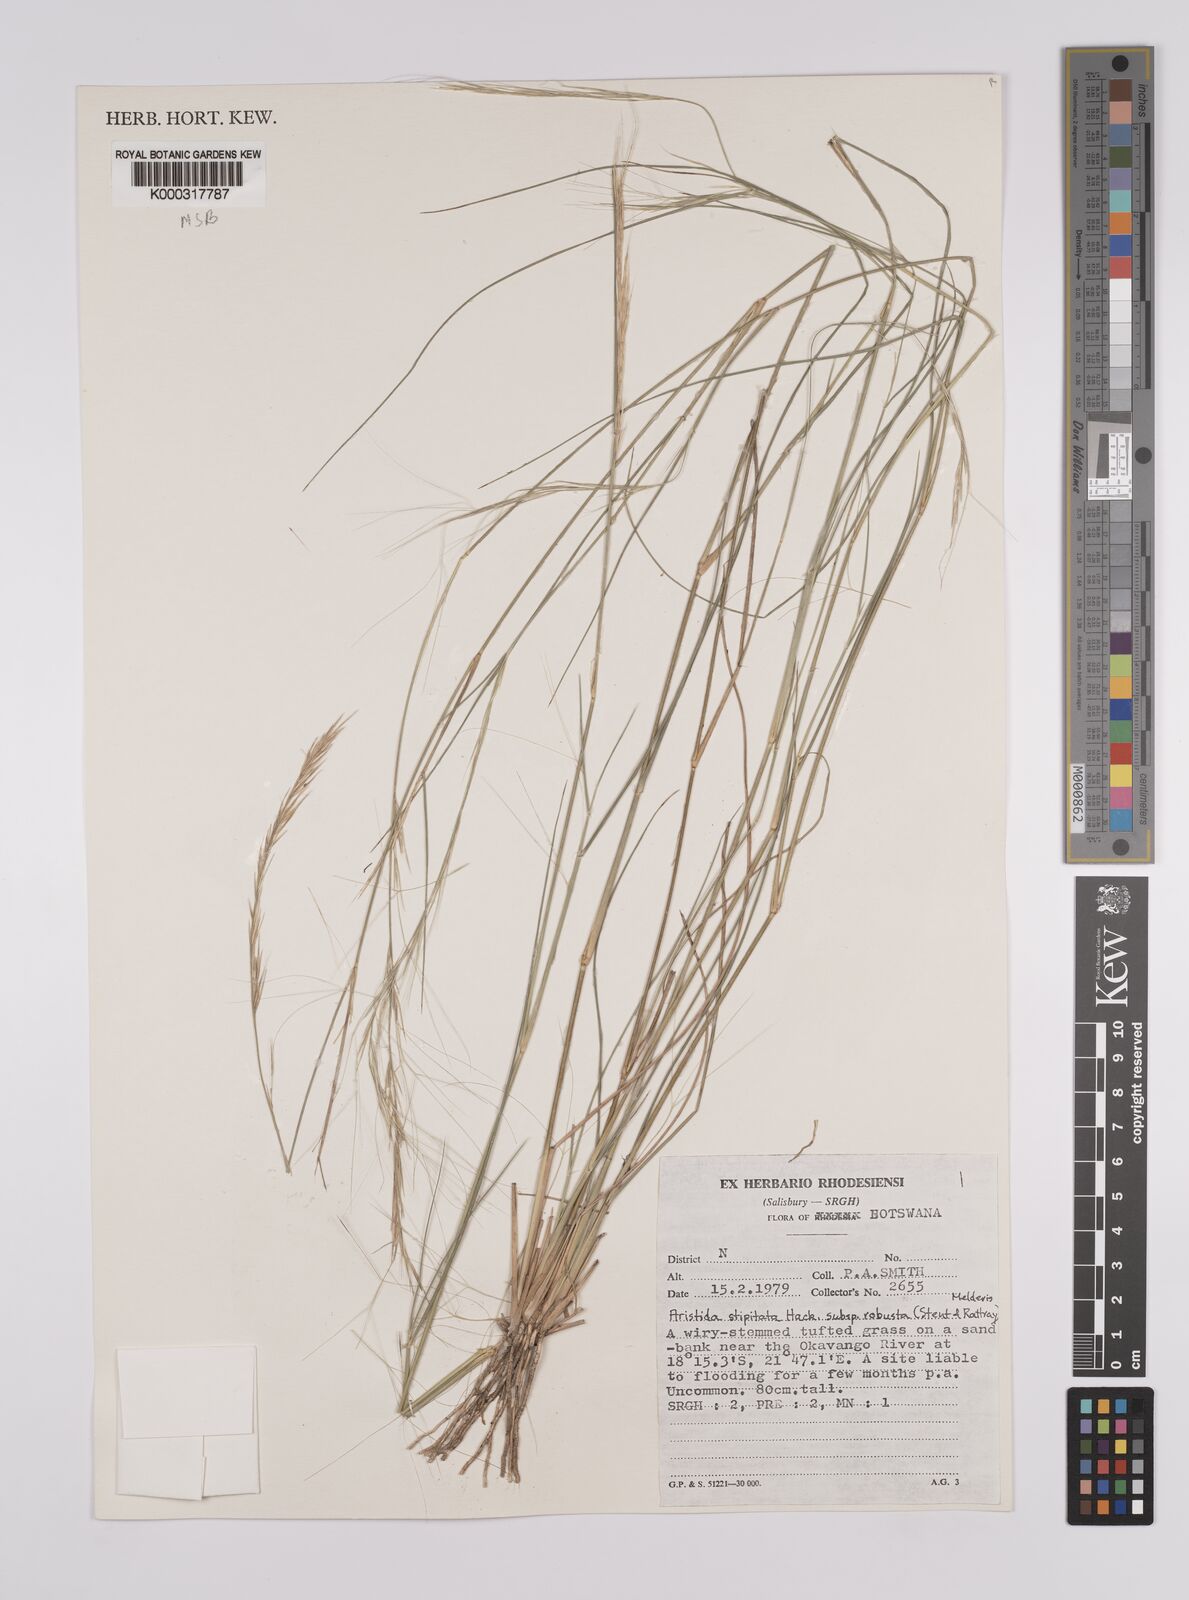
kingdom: Plantae
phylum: Tracheophyta
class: Liliopsida
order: Poales
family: Poaceae
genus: Aristida
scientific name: Aristida stipitata
